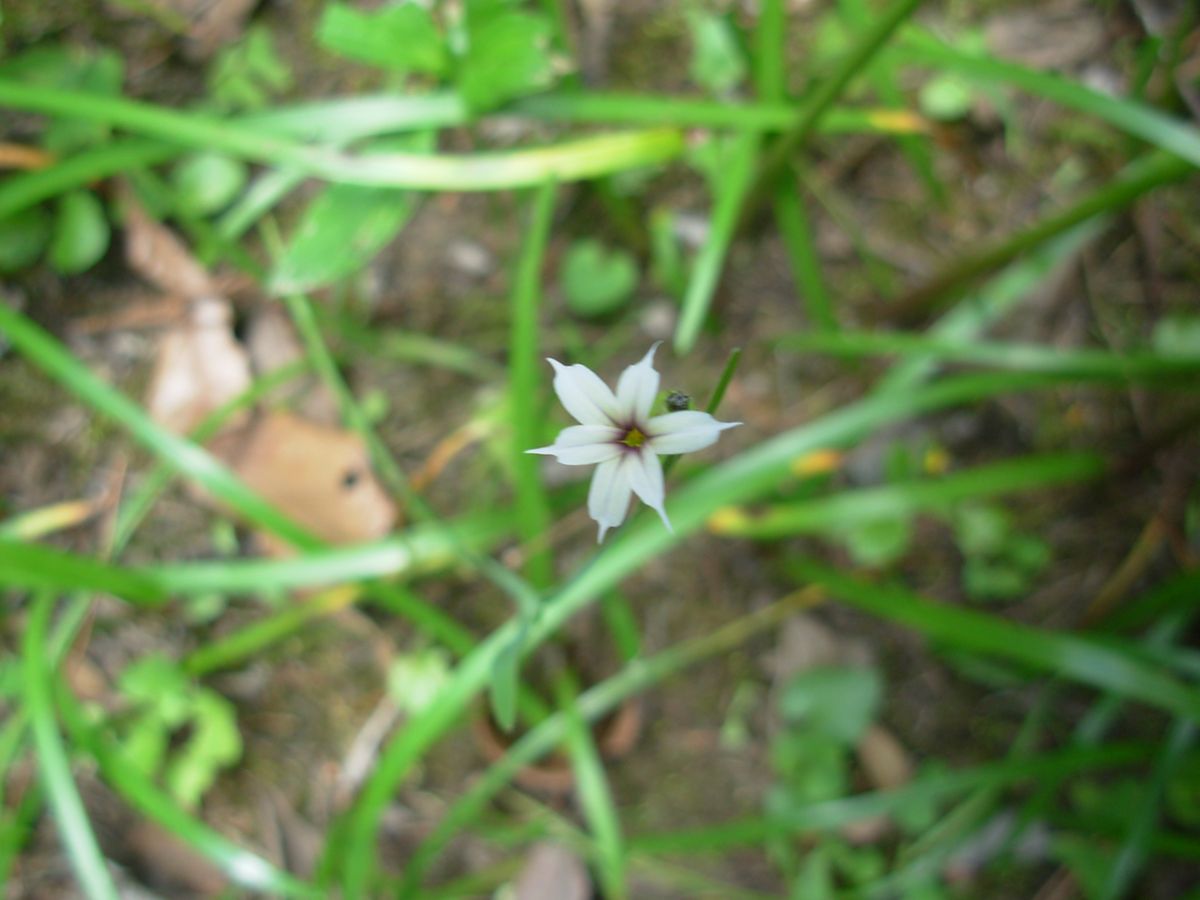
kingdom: Plantae
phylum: Tracheophyta
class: Liliopsida
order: Asparagales
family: Iridaceae
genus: Sisyrinchium
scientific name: Sisyrinchium micranthum
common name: Bermuda pigroot
